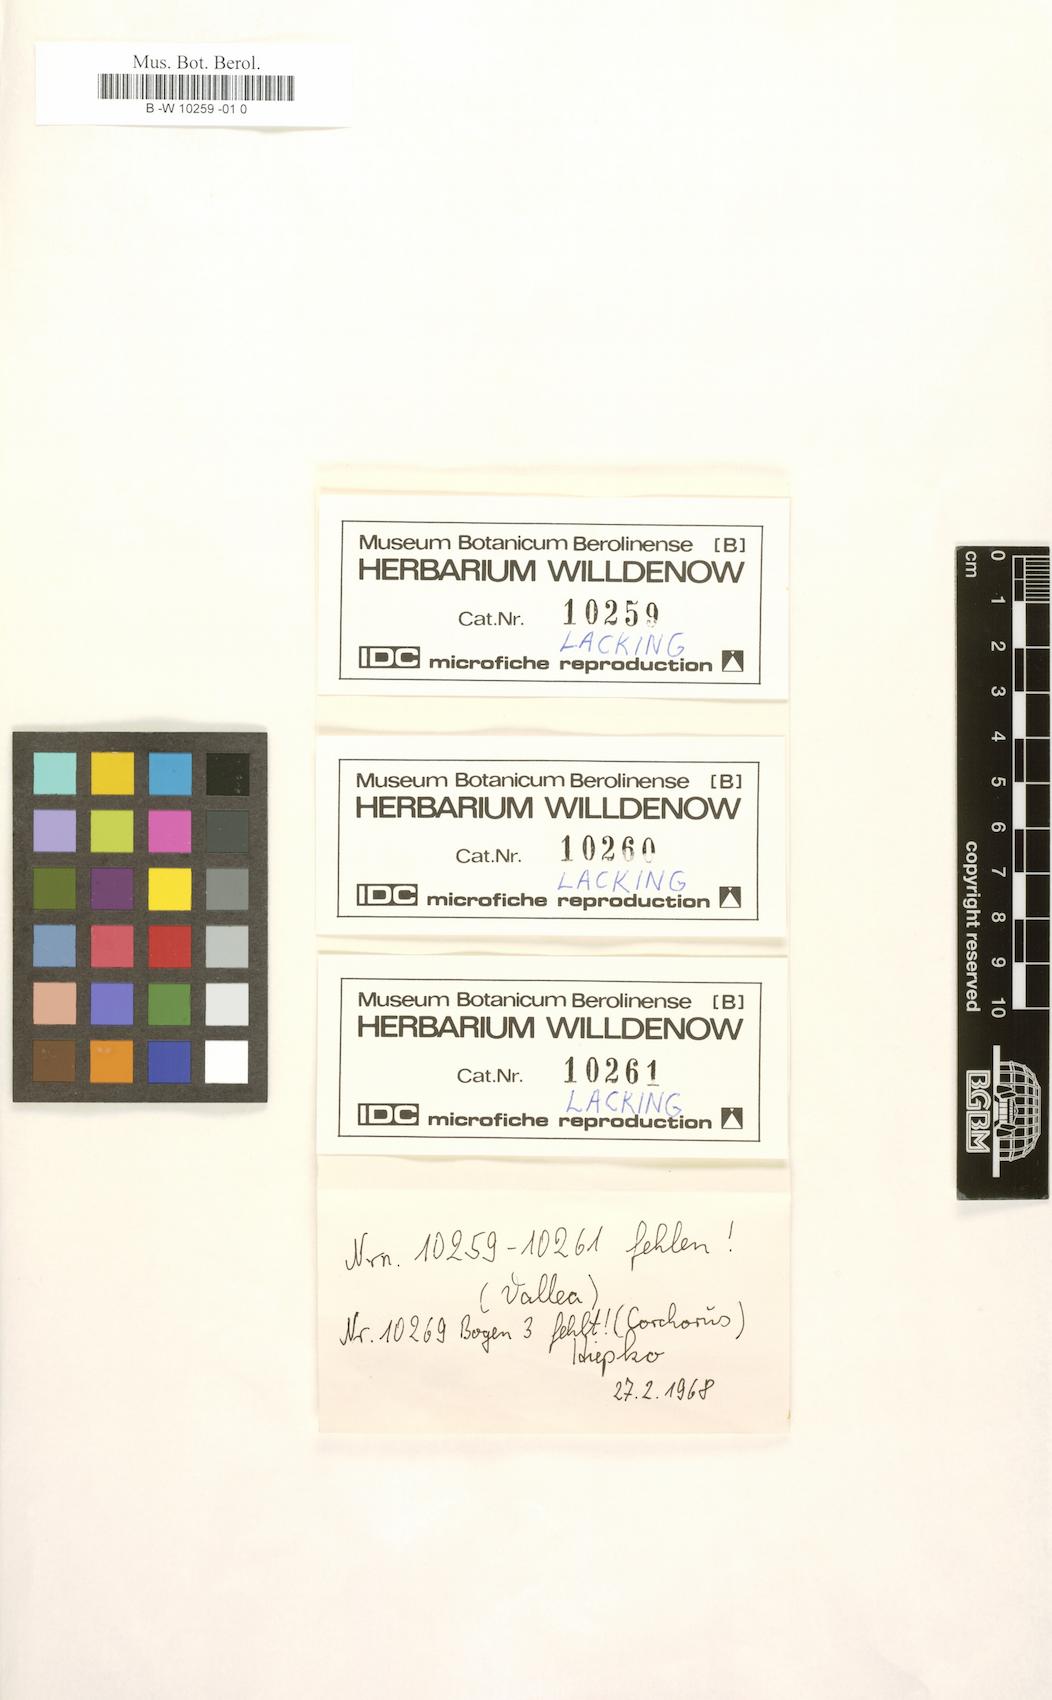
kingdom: Plantae
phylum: Tracheophyta
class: Magnoliopsida
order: Oxalidales
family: Elaeocarpaceae
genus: Vallea
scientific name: Vallea stipularis
